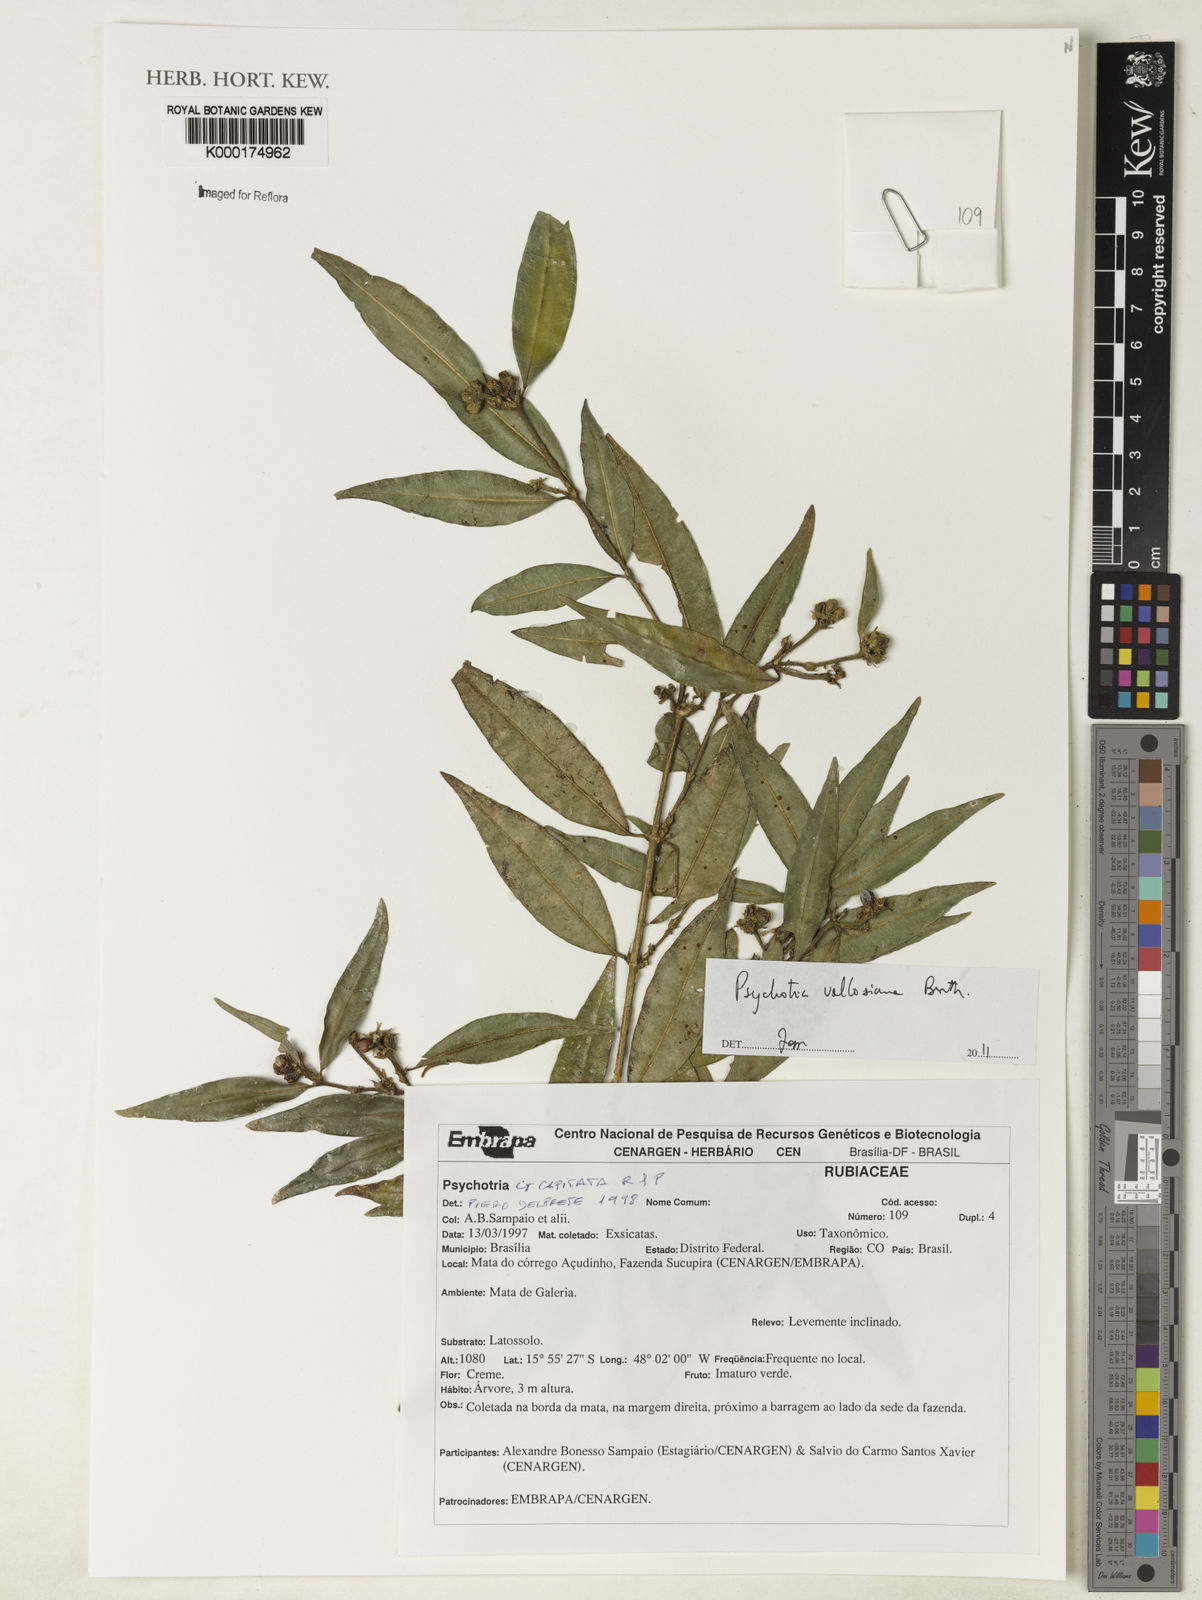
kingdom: Plantae
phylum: Tracheophyta
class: Magnoliopsida
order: Gentianales
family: Rubiaceae
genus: Palicourea
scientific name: Palicourea sessilis
